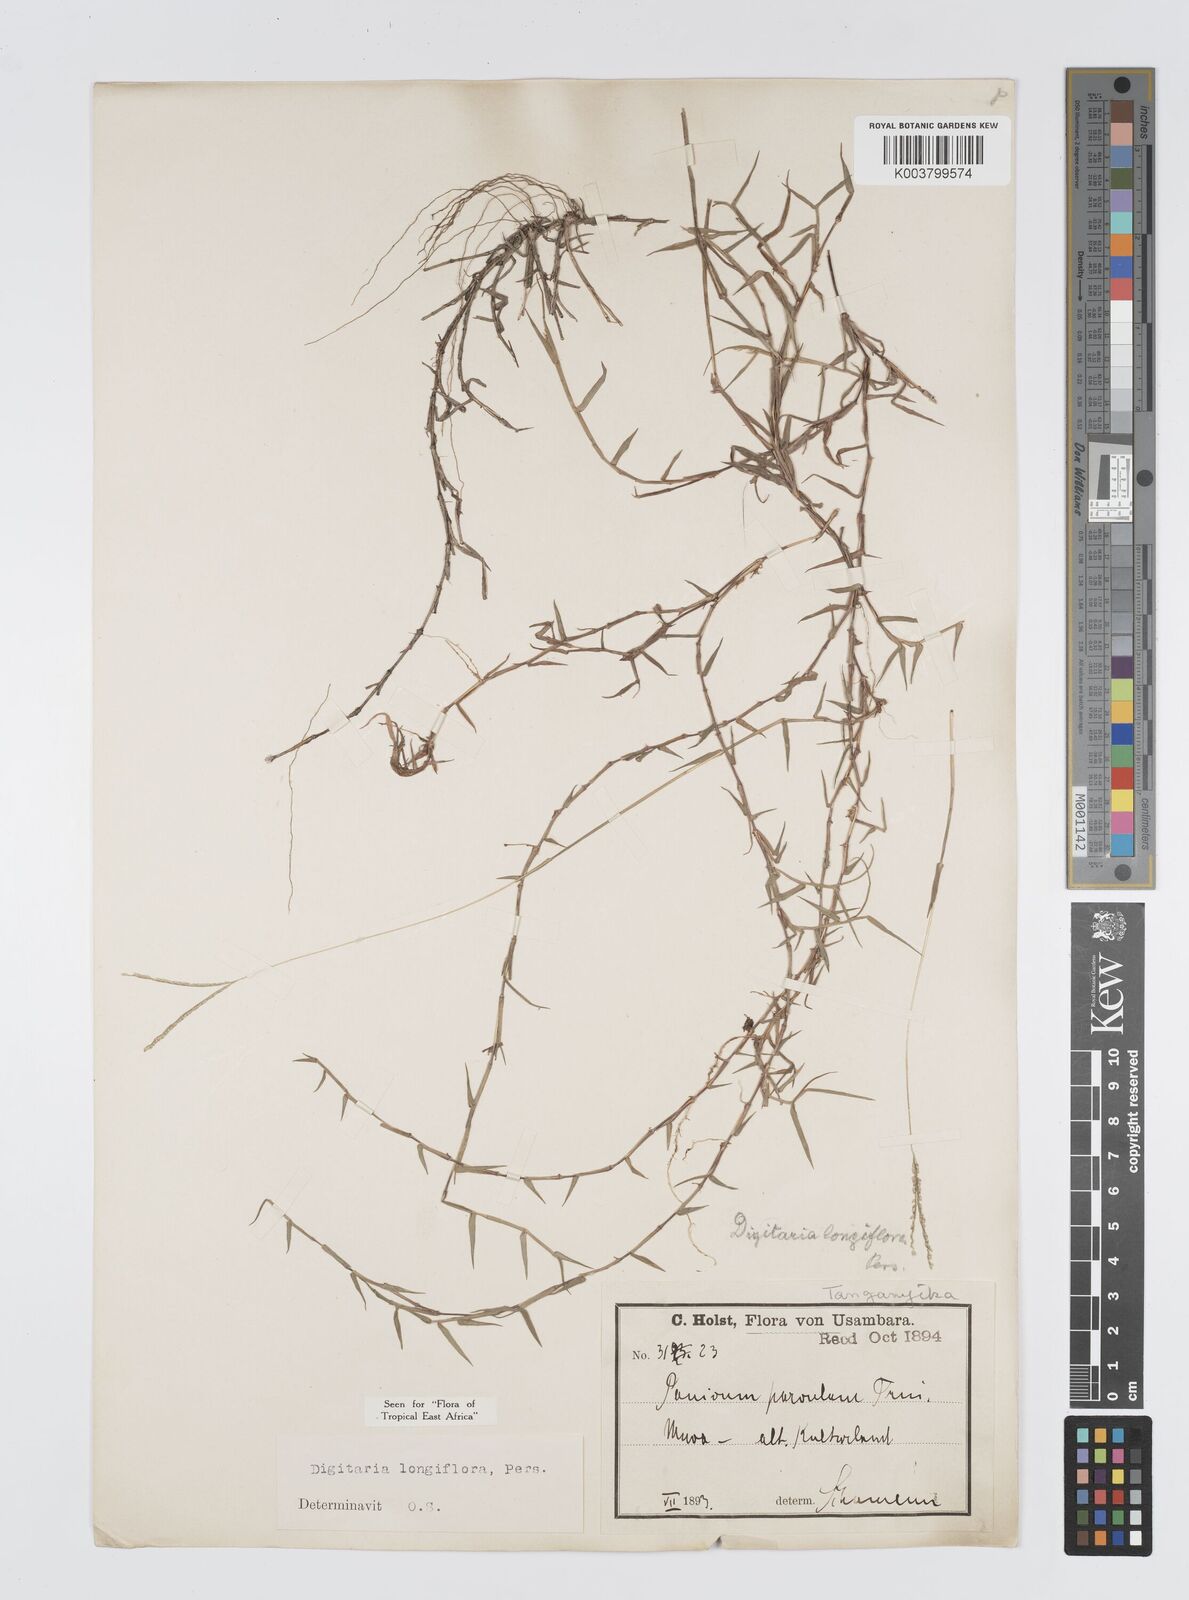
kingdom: Plantae
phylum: Tracheophyta
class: Liliopsida
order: Poales
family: Poaceae
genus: Digitaria
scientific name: Digitaria longiflora
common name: Wire crabgrass
